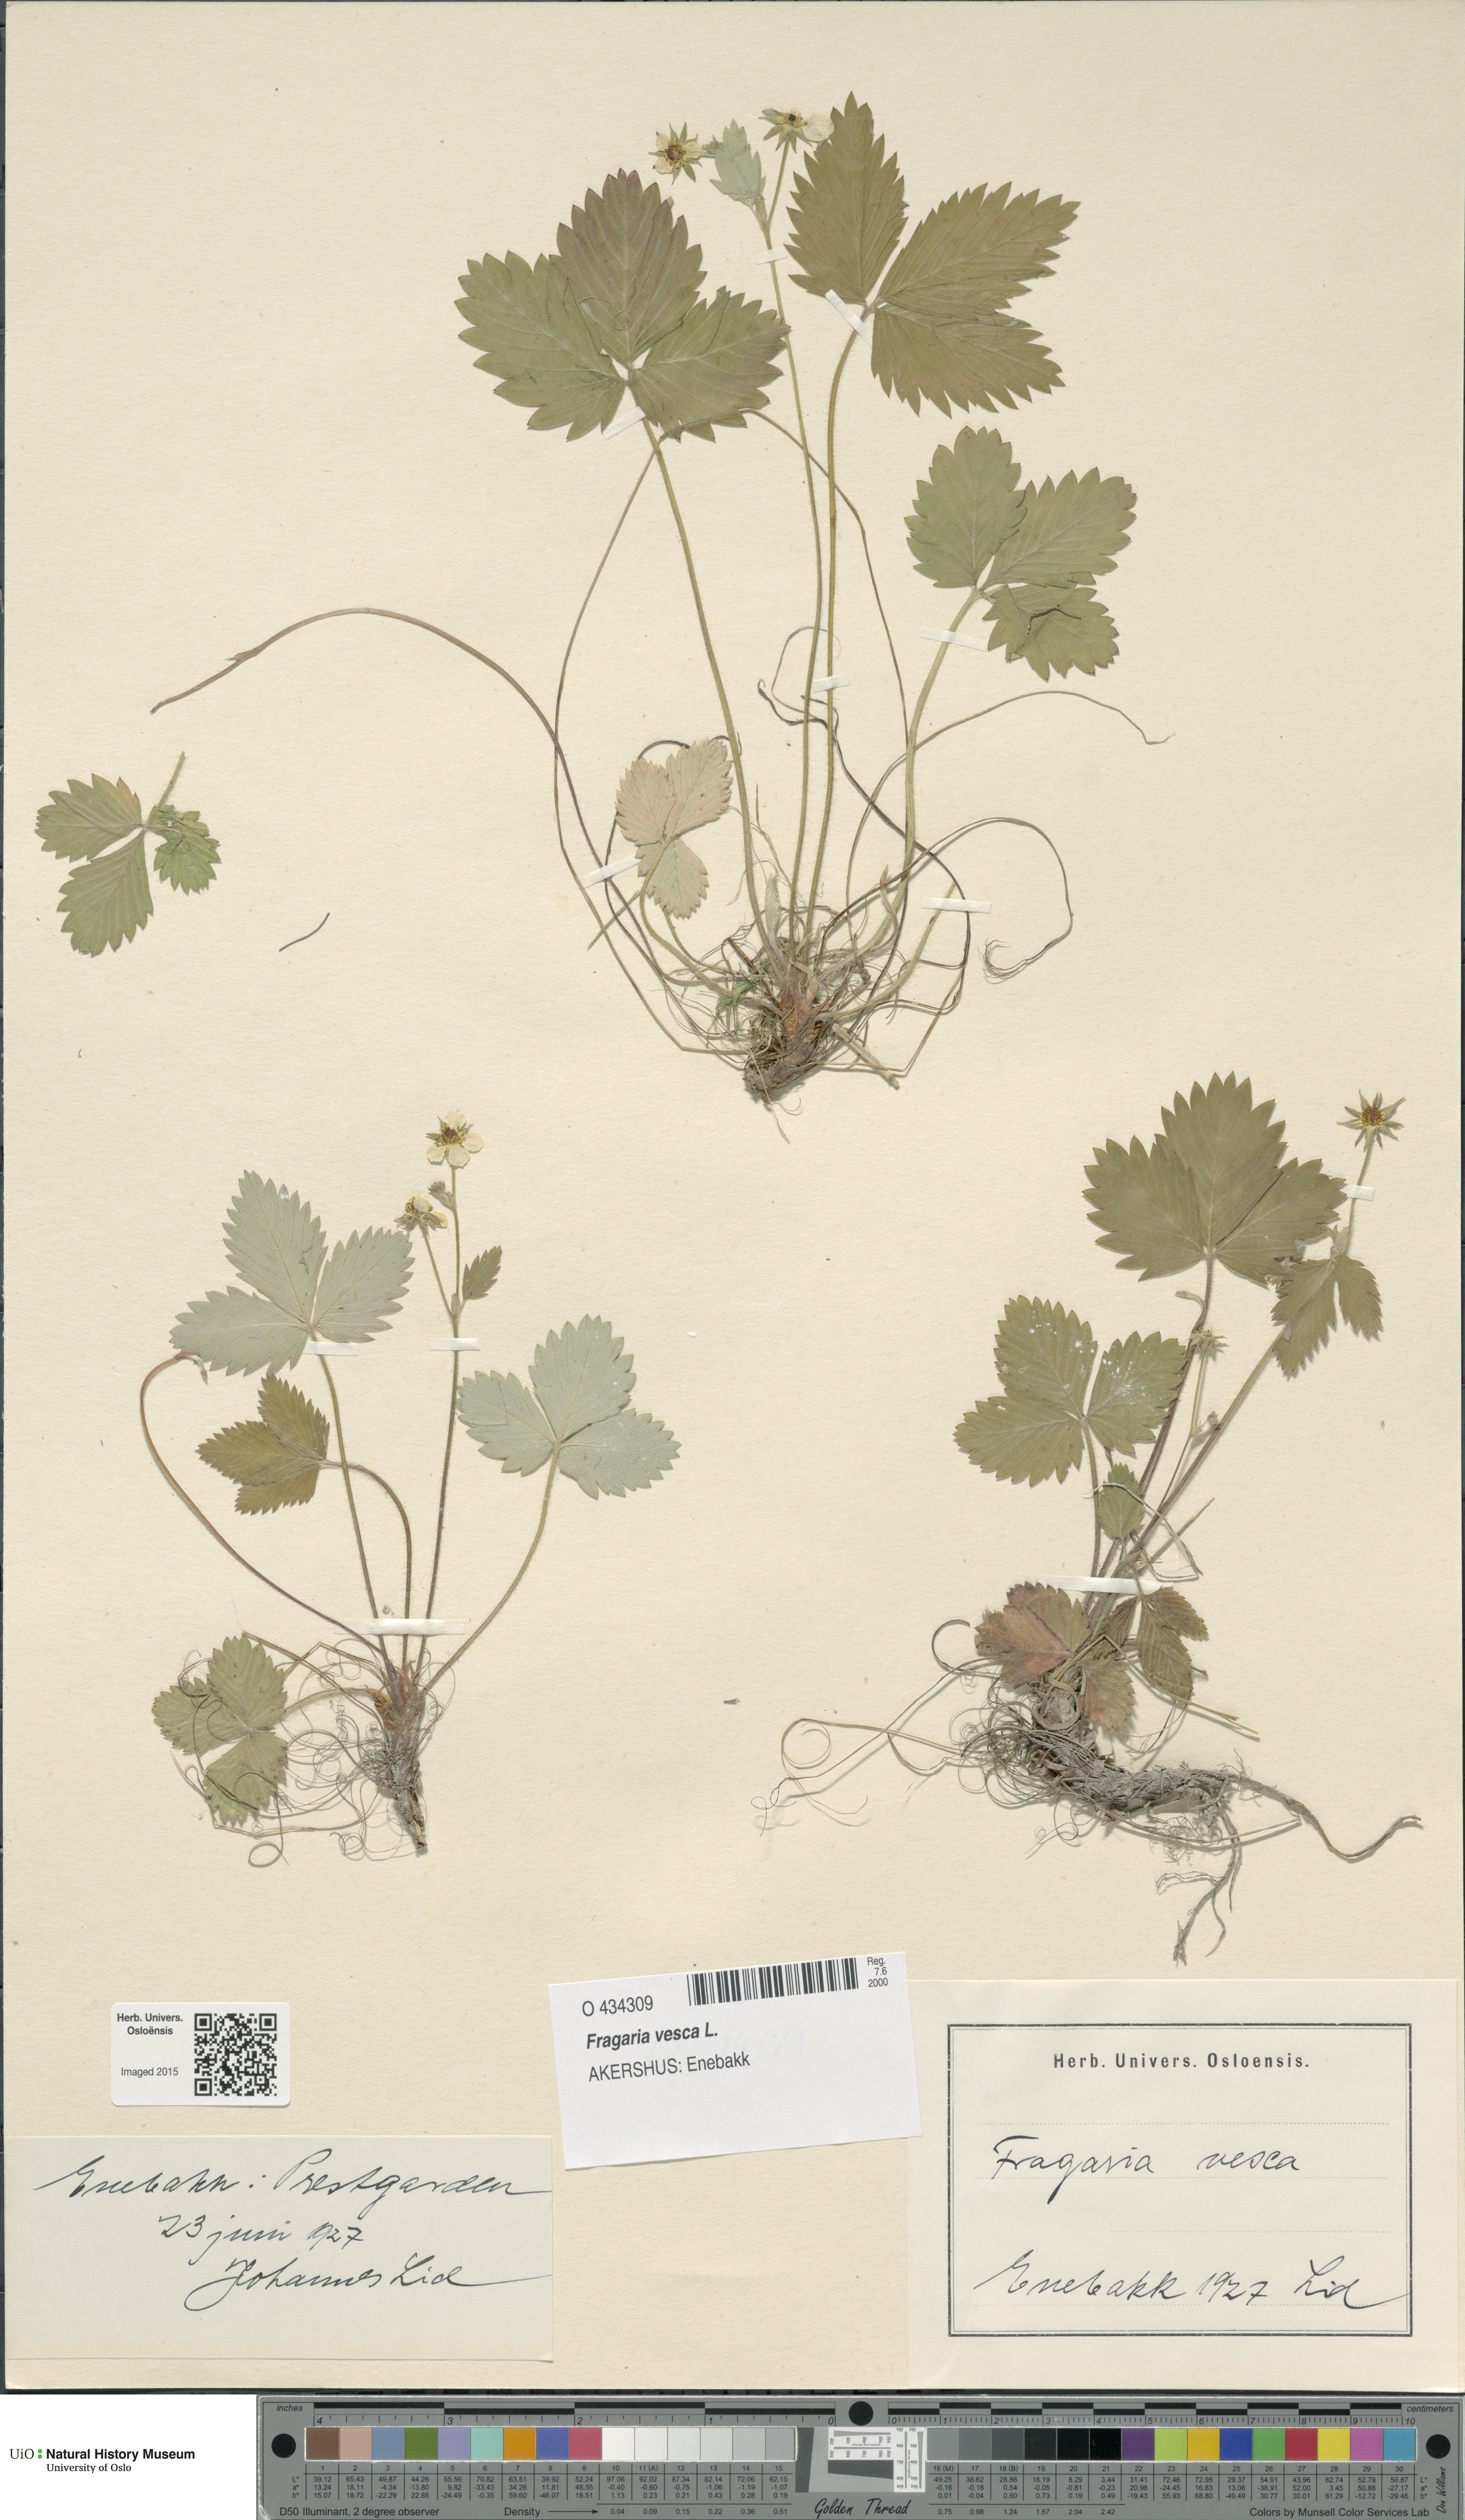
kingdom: Plantae
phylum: Tracheophyta
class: Magnoliopsida
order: Rosales
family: Rosaceae
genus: Fragaria
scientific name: Fragaria vesca
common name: Wild strawberry
